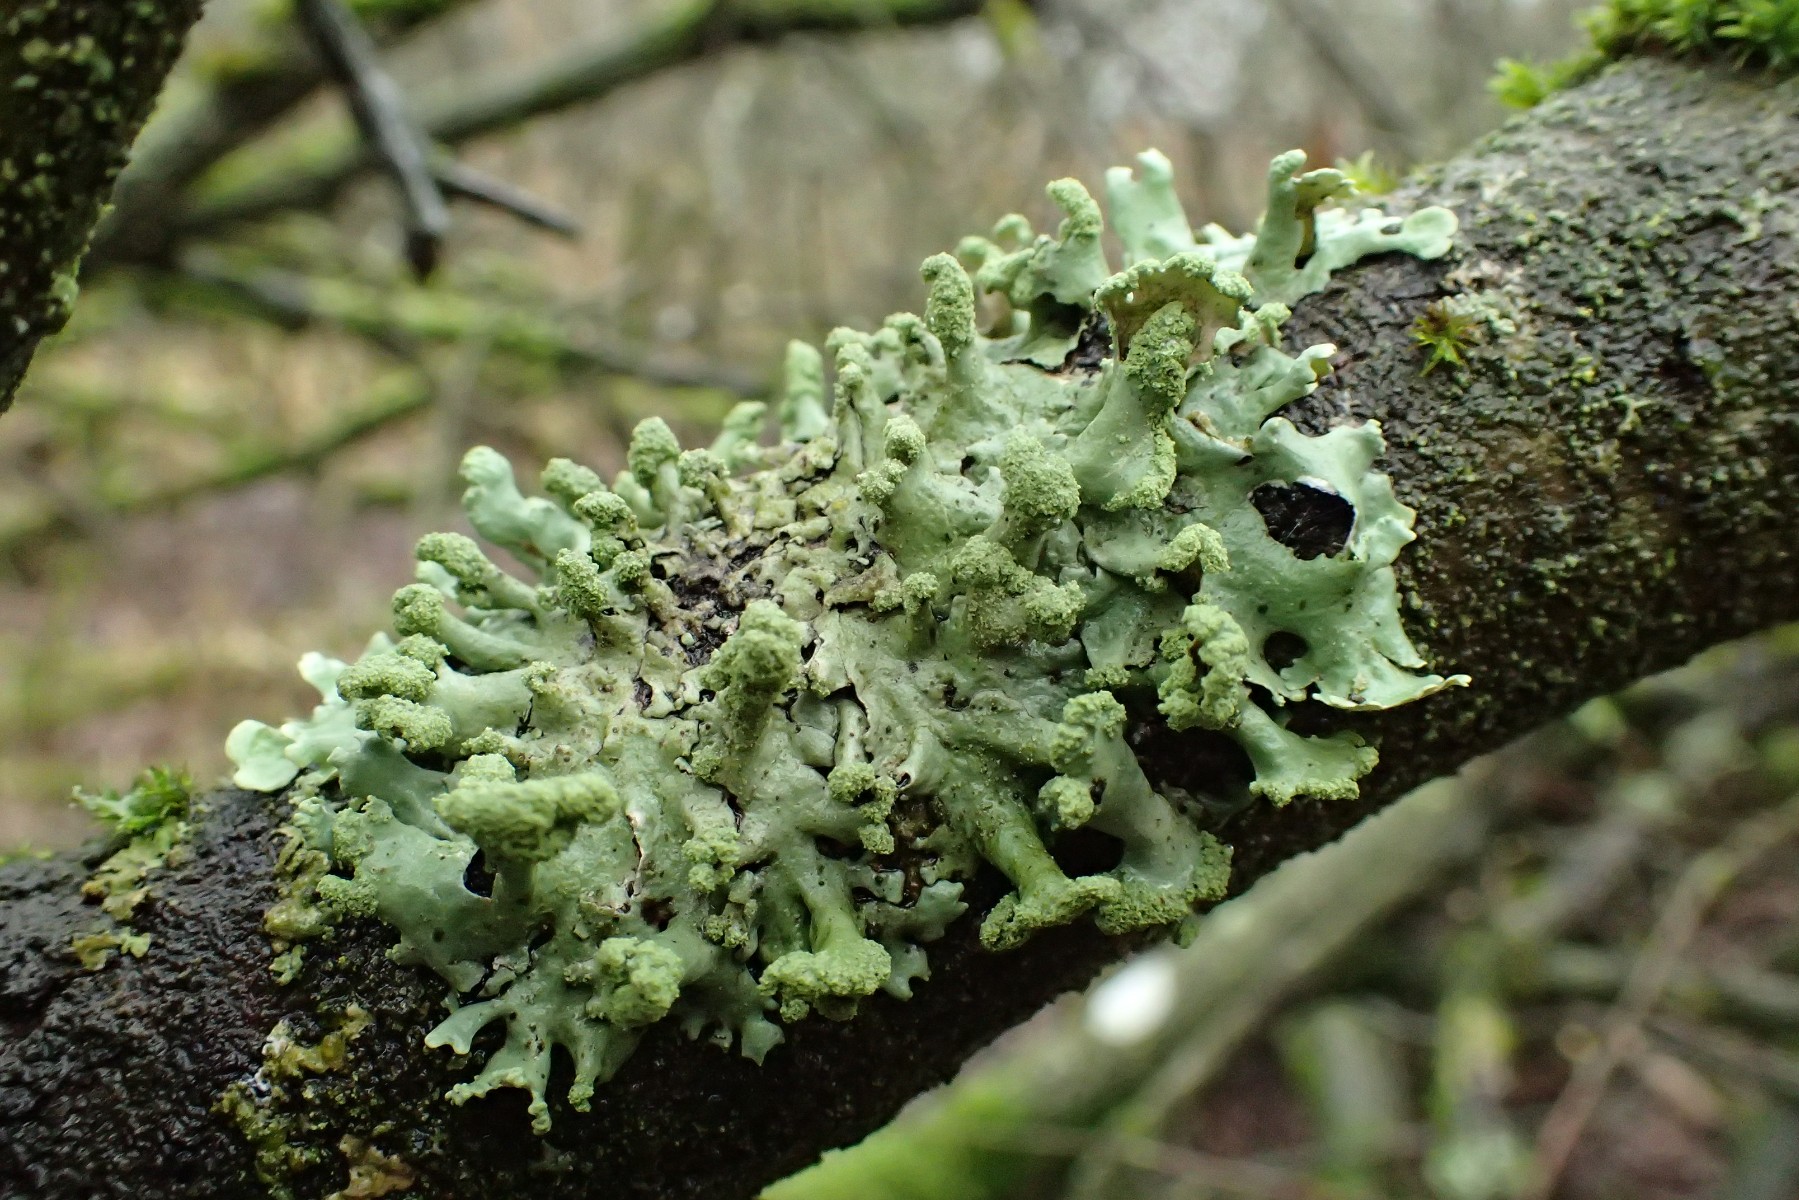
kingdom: Fungi
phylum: Ascomycota
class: Lecanoromycetes
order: Lecanorales
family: Parmeliaceae
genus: Hypotrachyna
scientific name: Hypotrachyna revoluta
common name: bleggrå skållav
